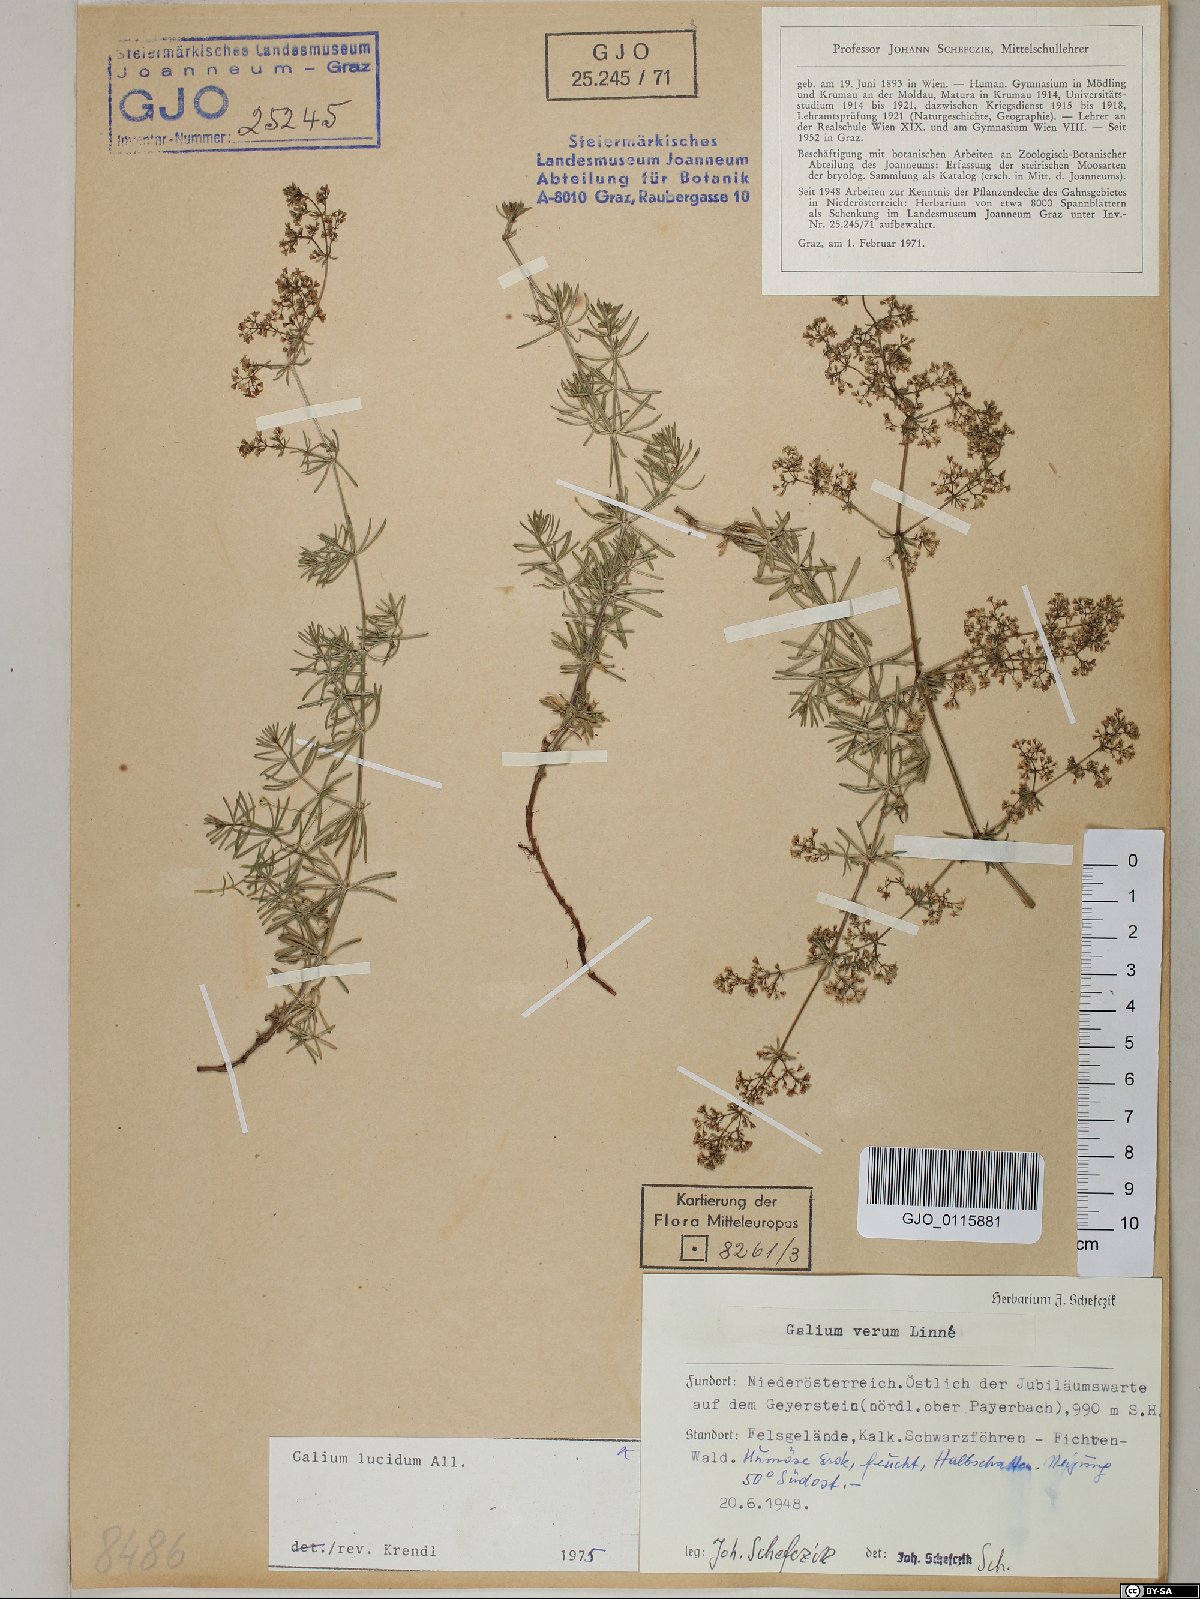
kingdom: Plantae
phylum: Tracheophyta
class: Magnoliopsida
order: Gentianales
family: Rubiaceae
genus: Galium
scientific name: Galium lucidum
